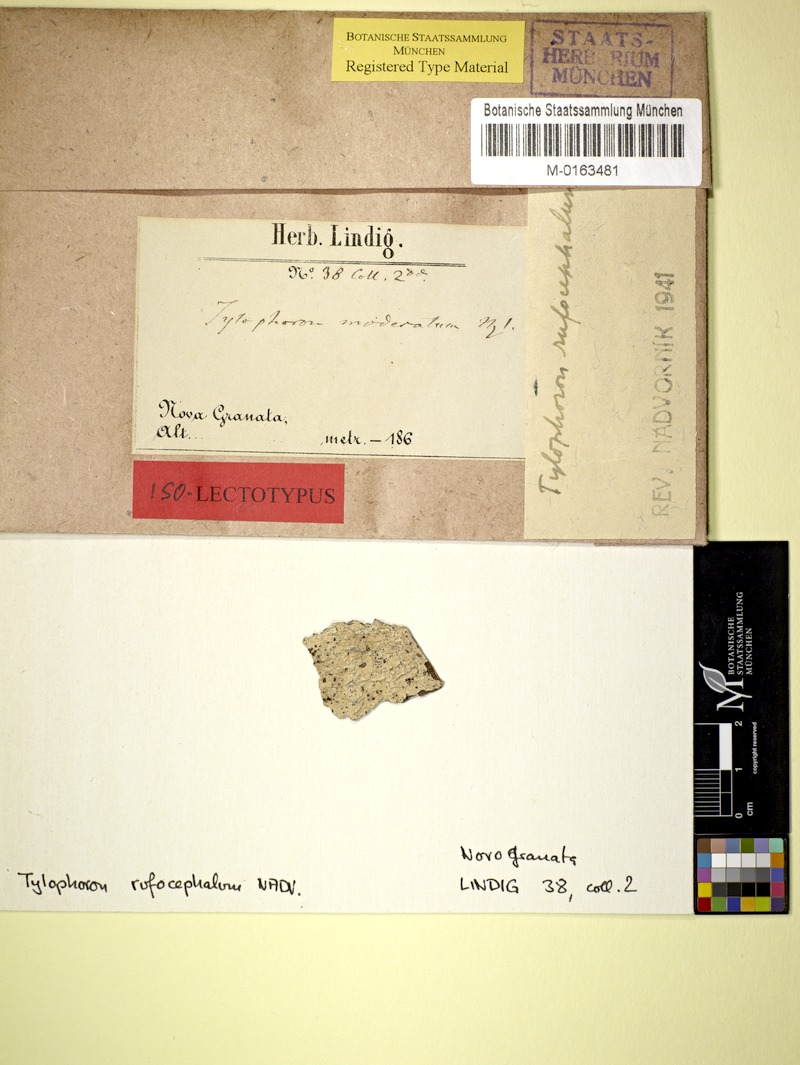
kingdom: Fungi
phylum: Ascomycota
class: Arthoniomycetes
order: Arthoniales
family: Arthoniaceae
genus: Tylophoron
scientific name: Tylophoron protrudens
